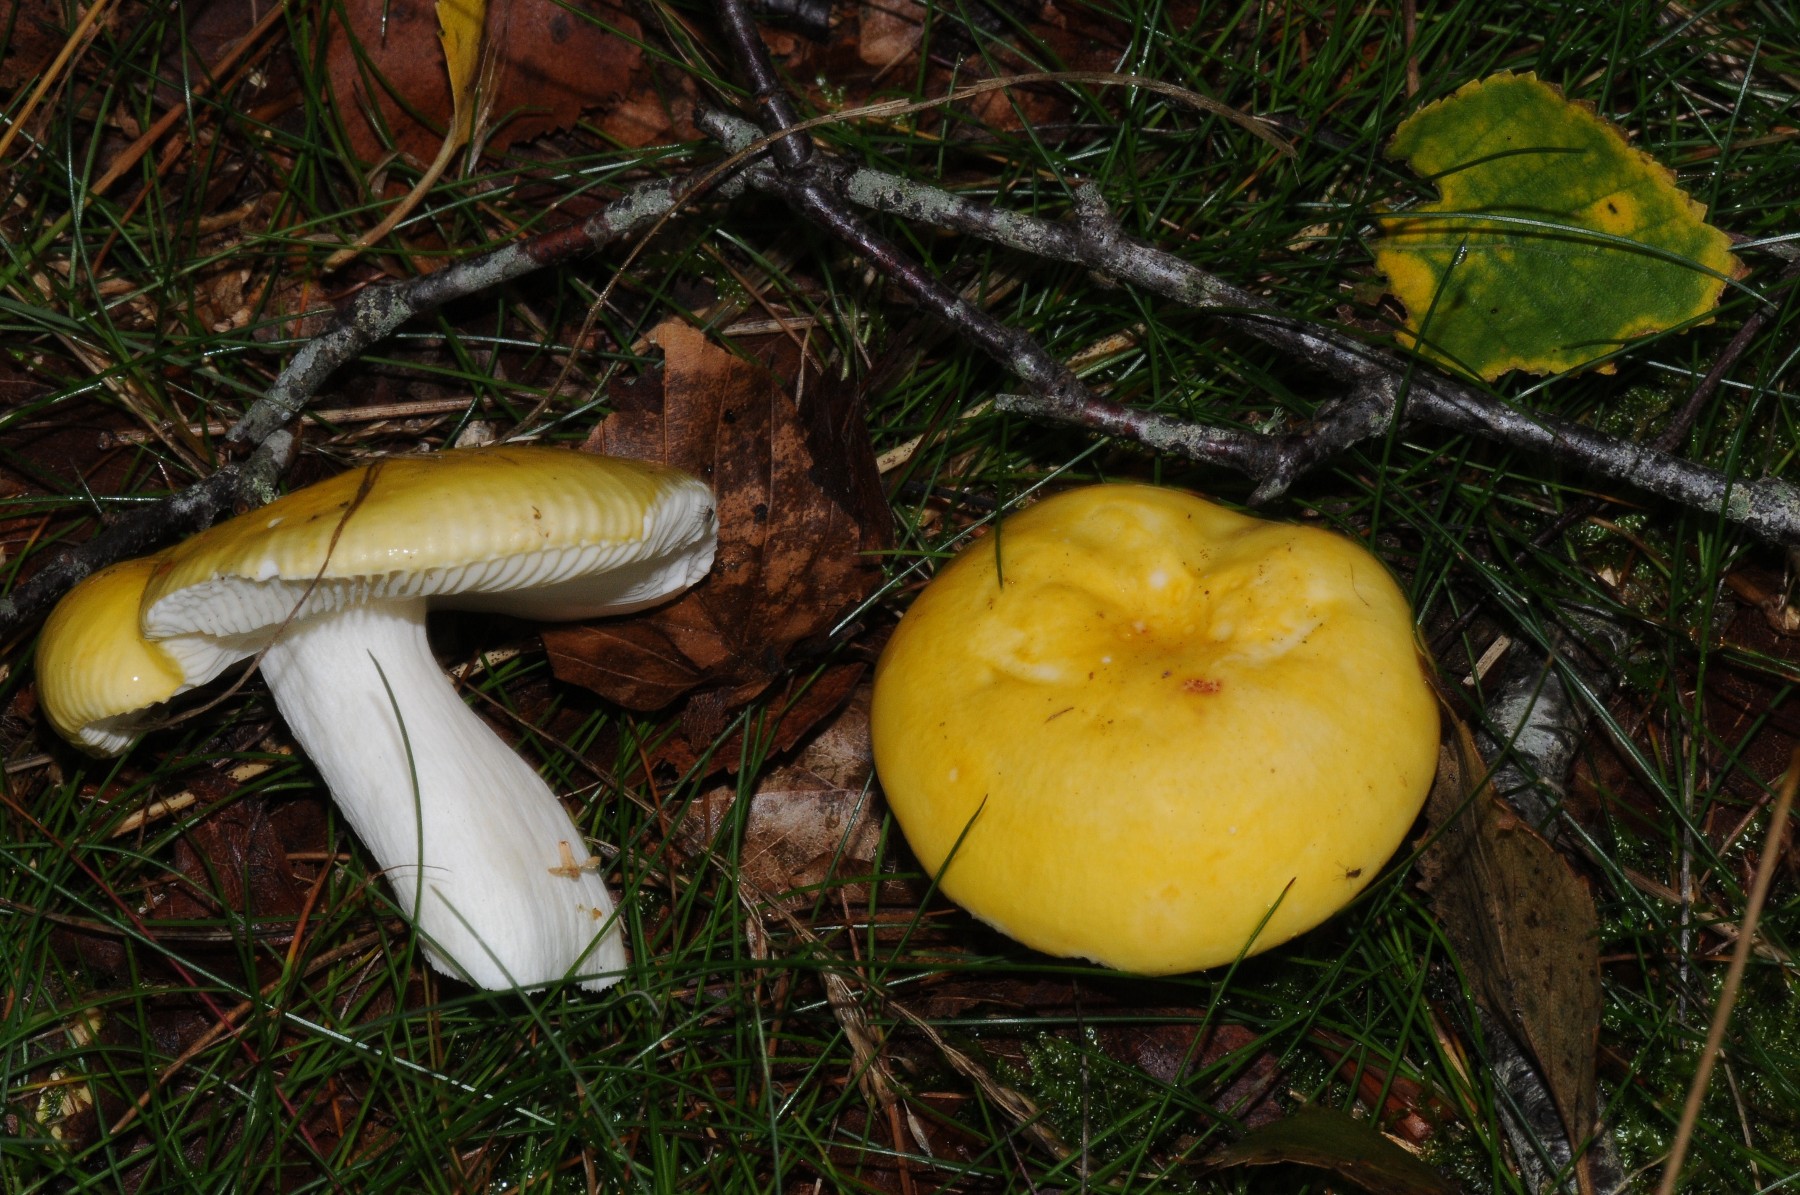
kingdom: Fungi
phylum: Basidiomycota
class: Agaricomycetes
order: Russulales
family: Russulaceae
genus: Russula
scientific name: Russula claroflava
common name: birke-skørhat
